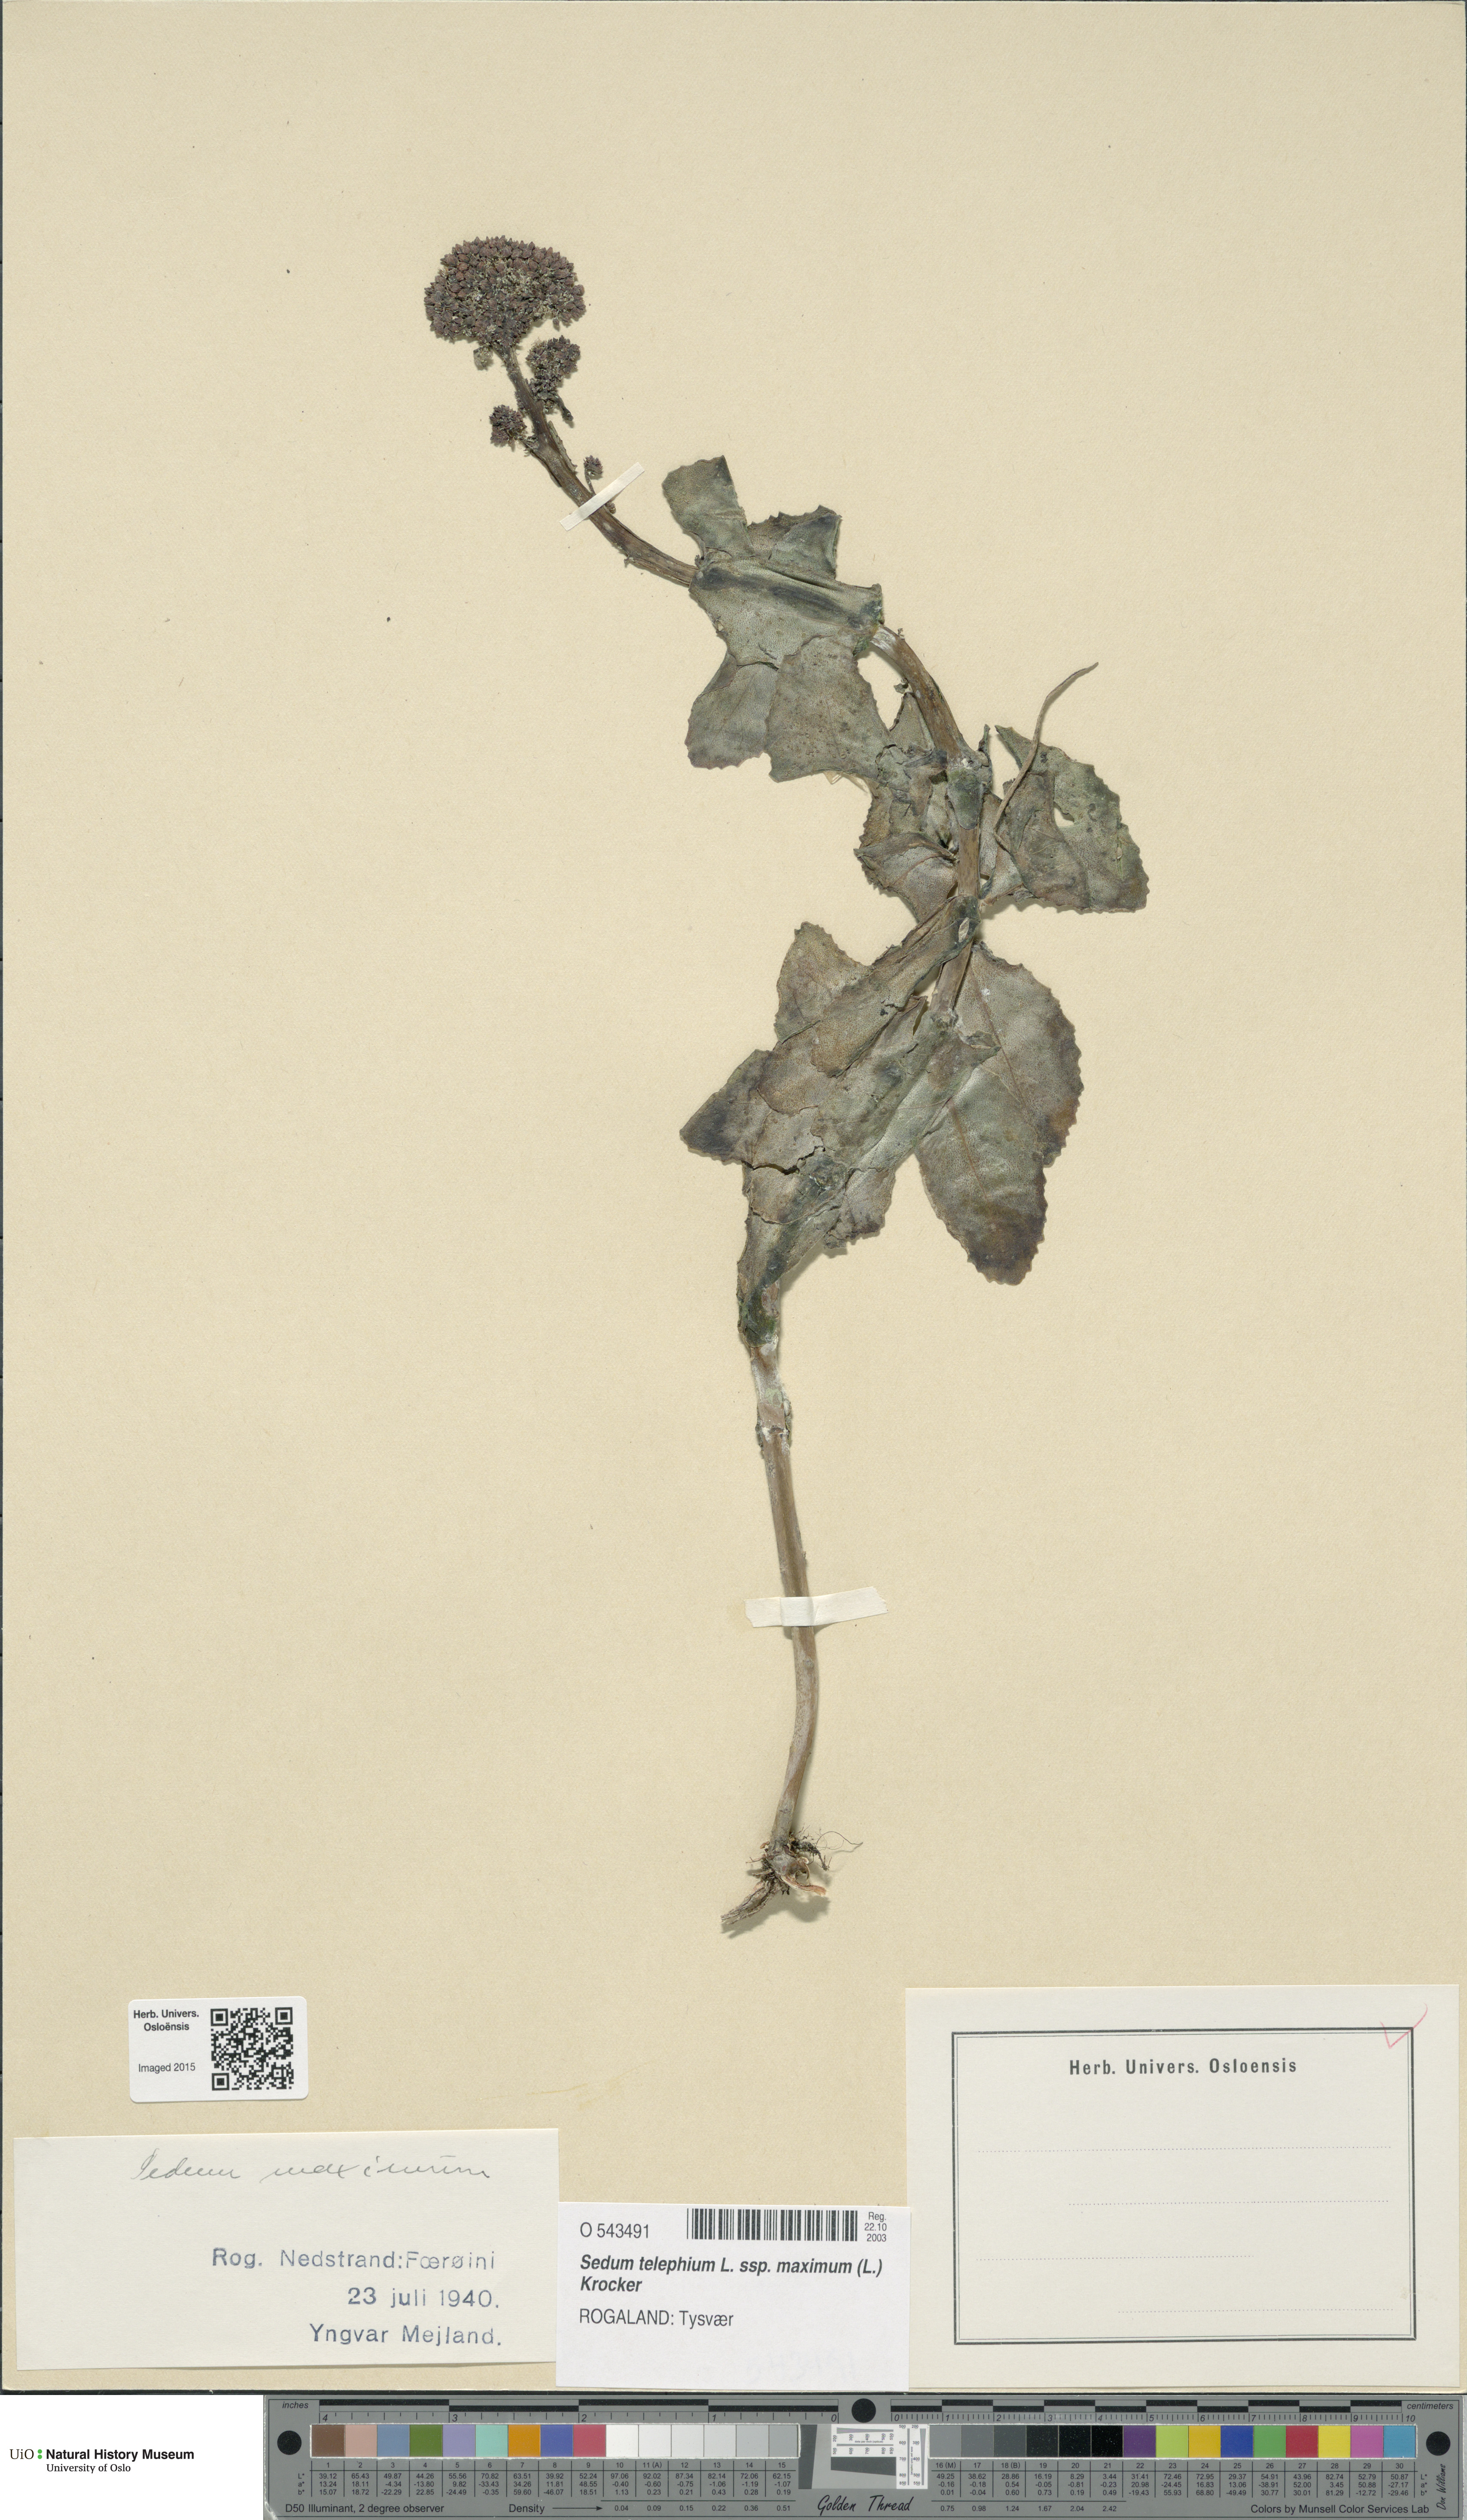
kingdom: Plantae
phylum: Tracheophyta
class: Magnoliopsida
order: Saxifragales
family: Crassulaceae
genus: Hylotelephium
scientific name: Hylotelephium maximum
